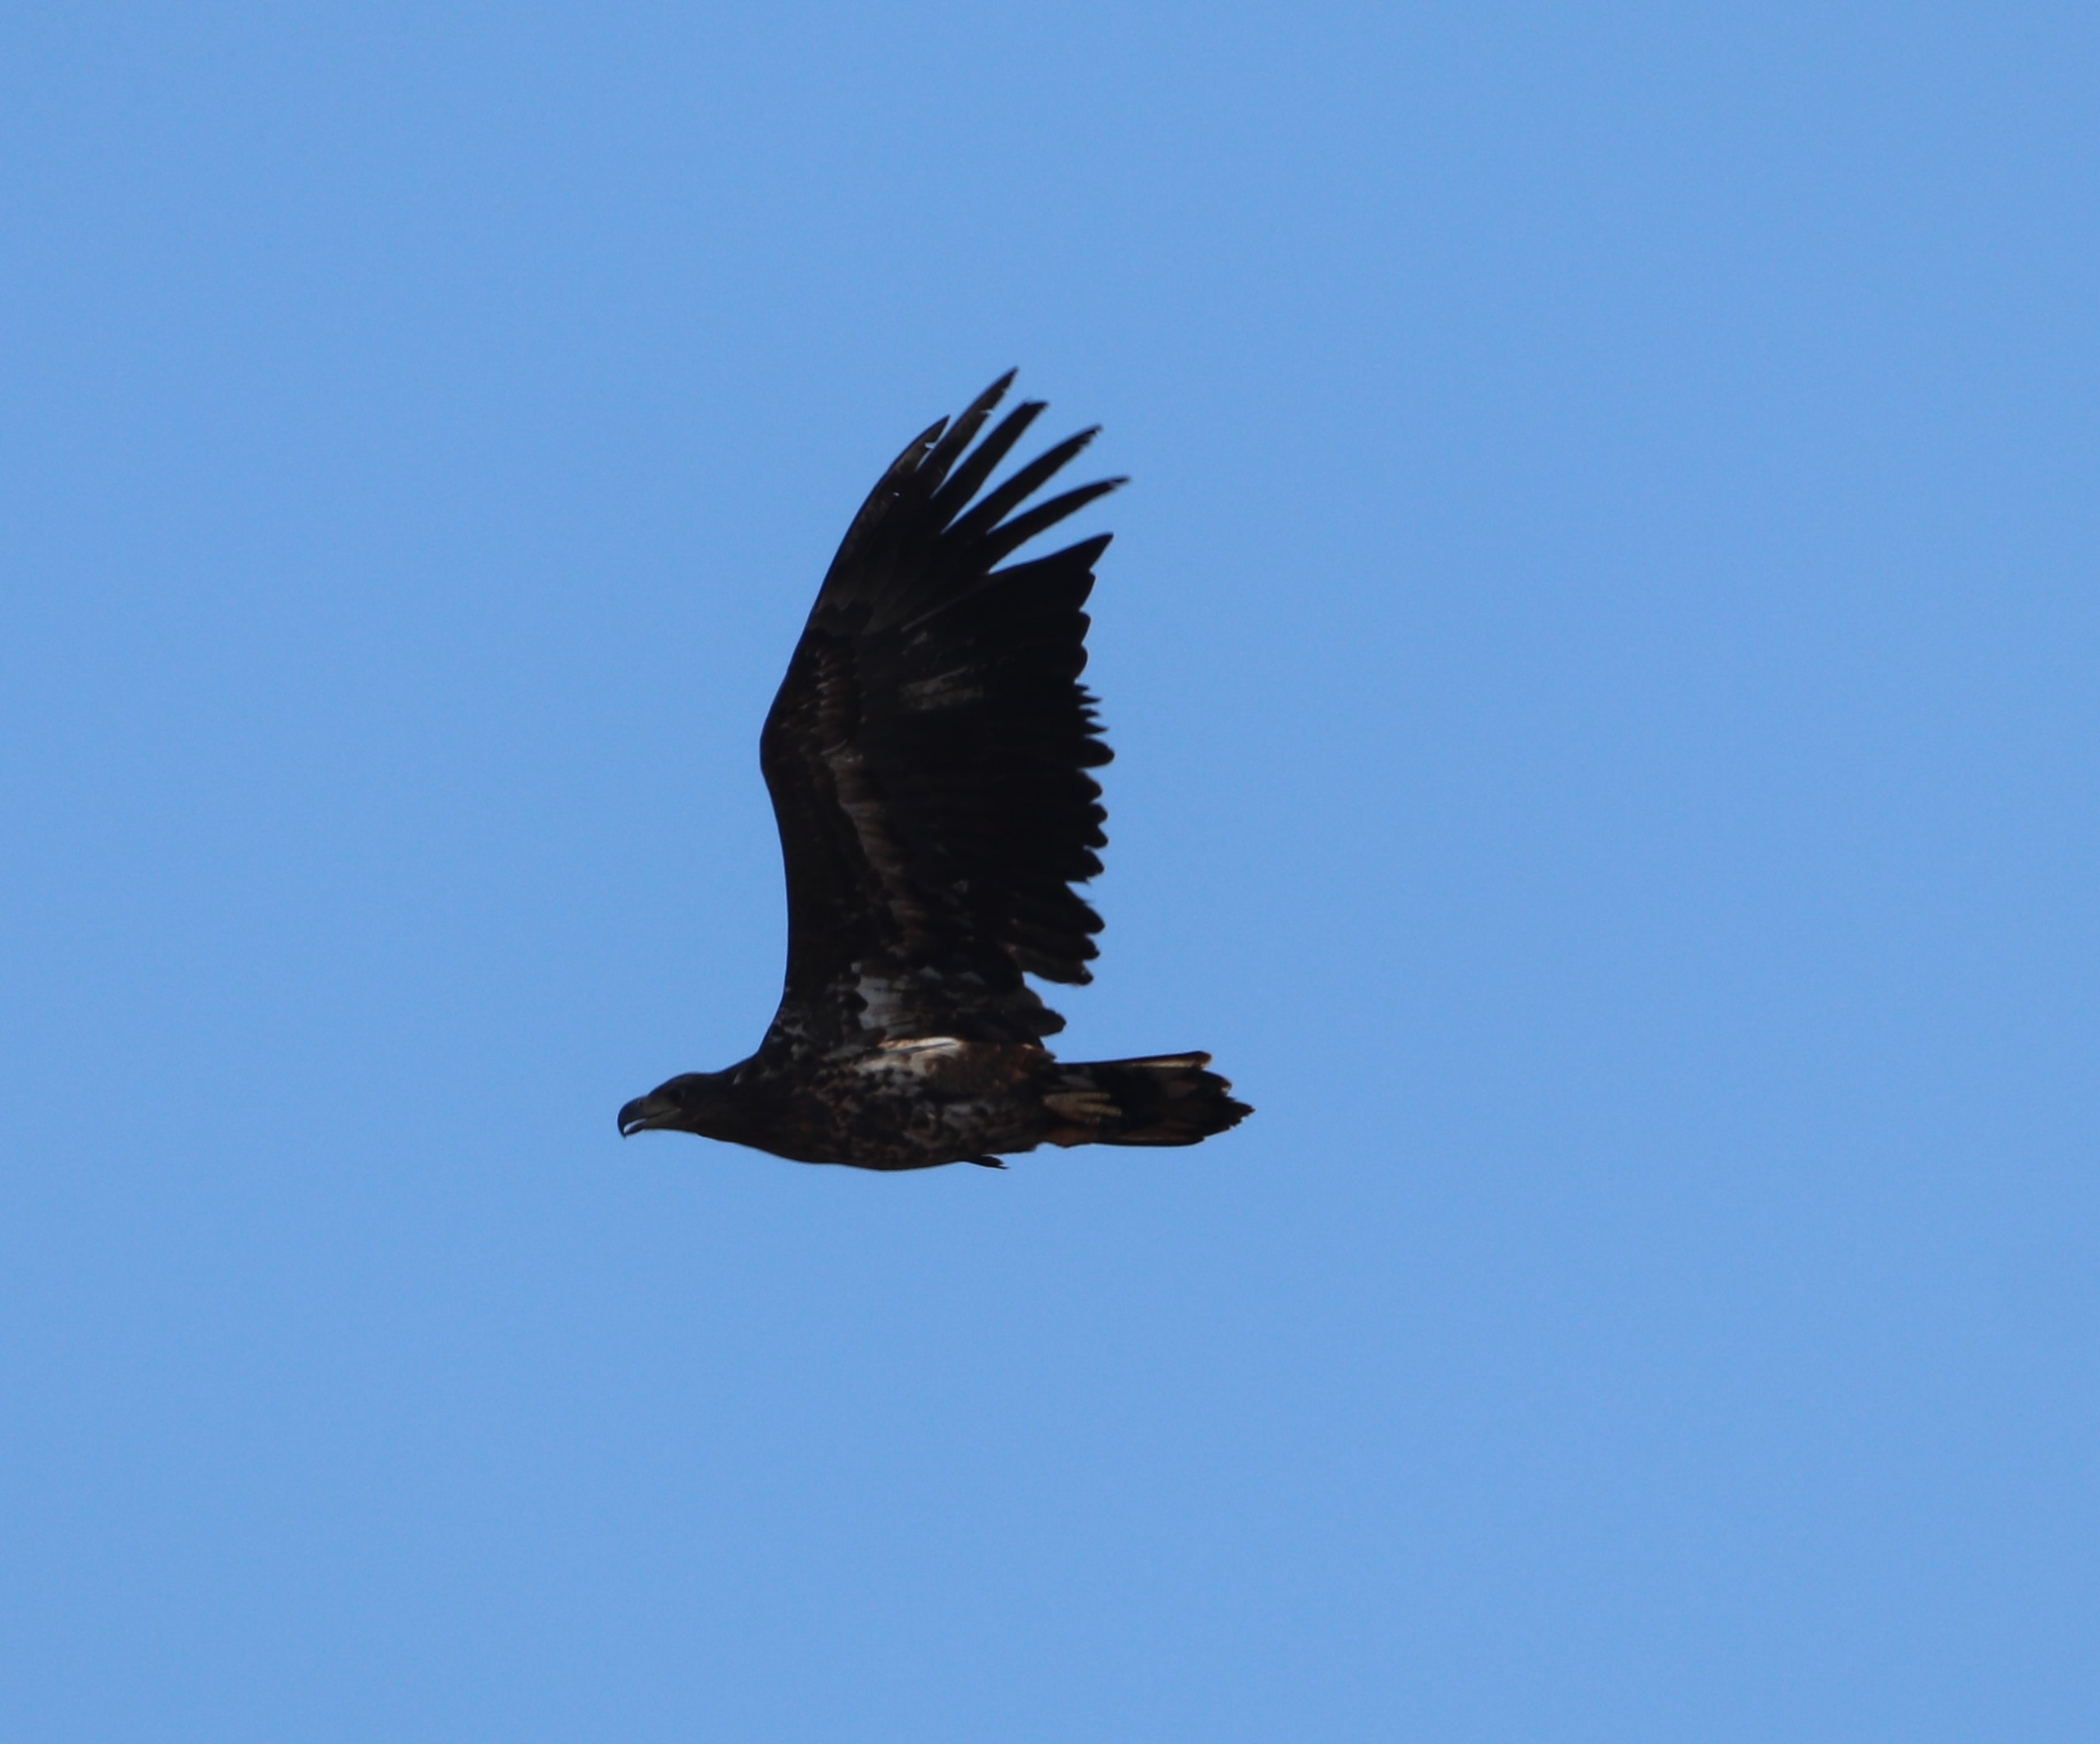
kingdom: Animalia
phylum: Chordata
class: Aves
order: Accipitriformes
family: Accipitridae
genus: Haliaeetus
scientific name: Haliaeetus albicilla
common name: Havørn
